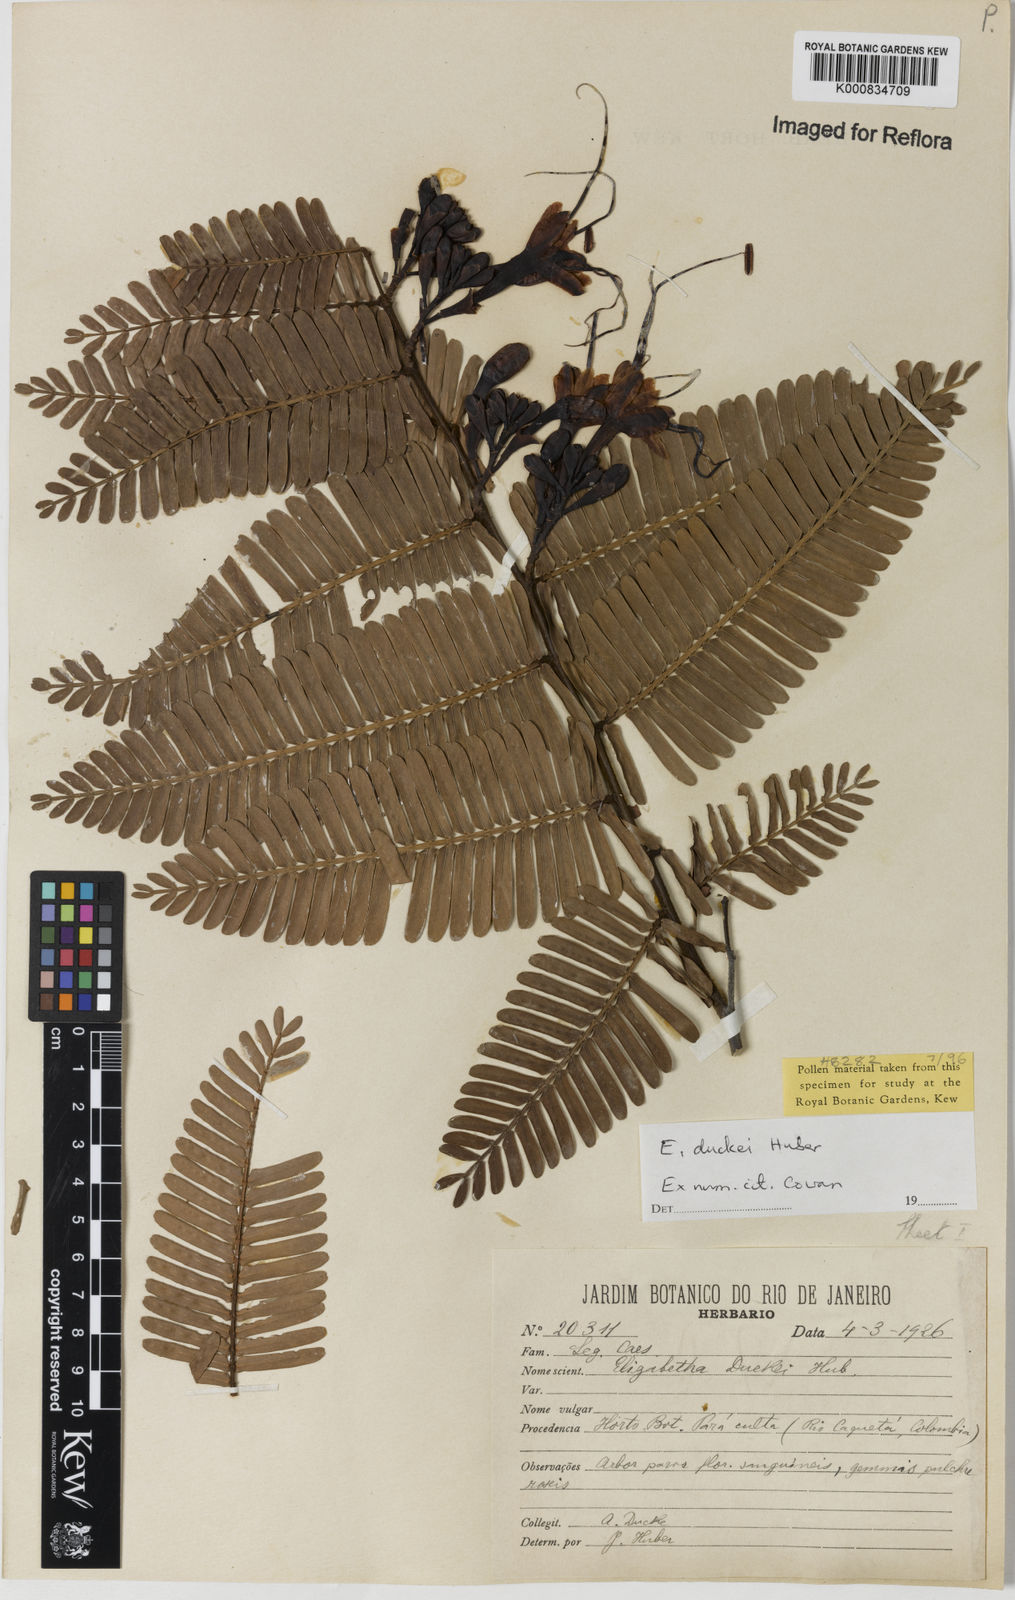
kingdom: Plantae
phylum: Tracheophyta
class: Magnoliopsida
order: Fabales
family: Fabaceae
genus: Paloue
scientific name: Paloue duckei
